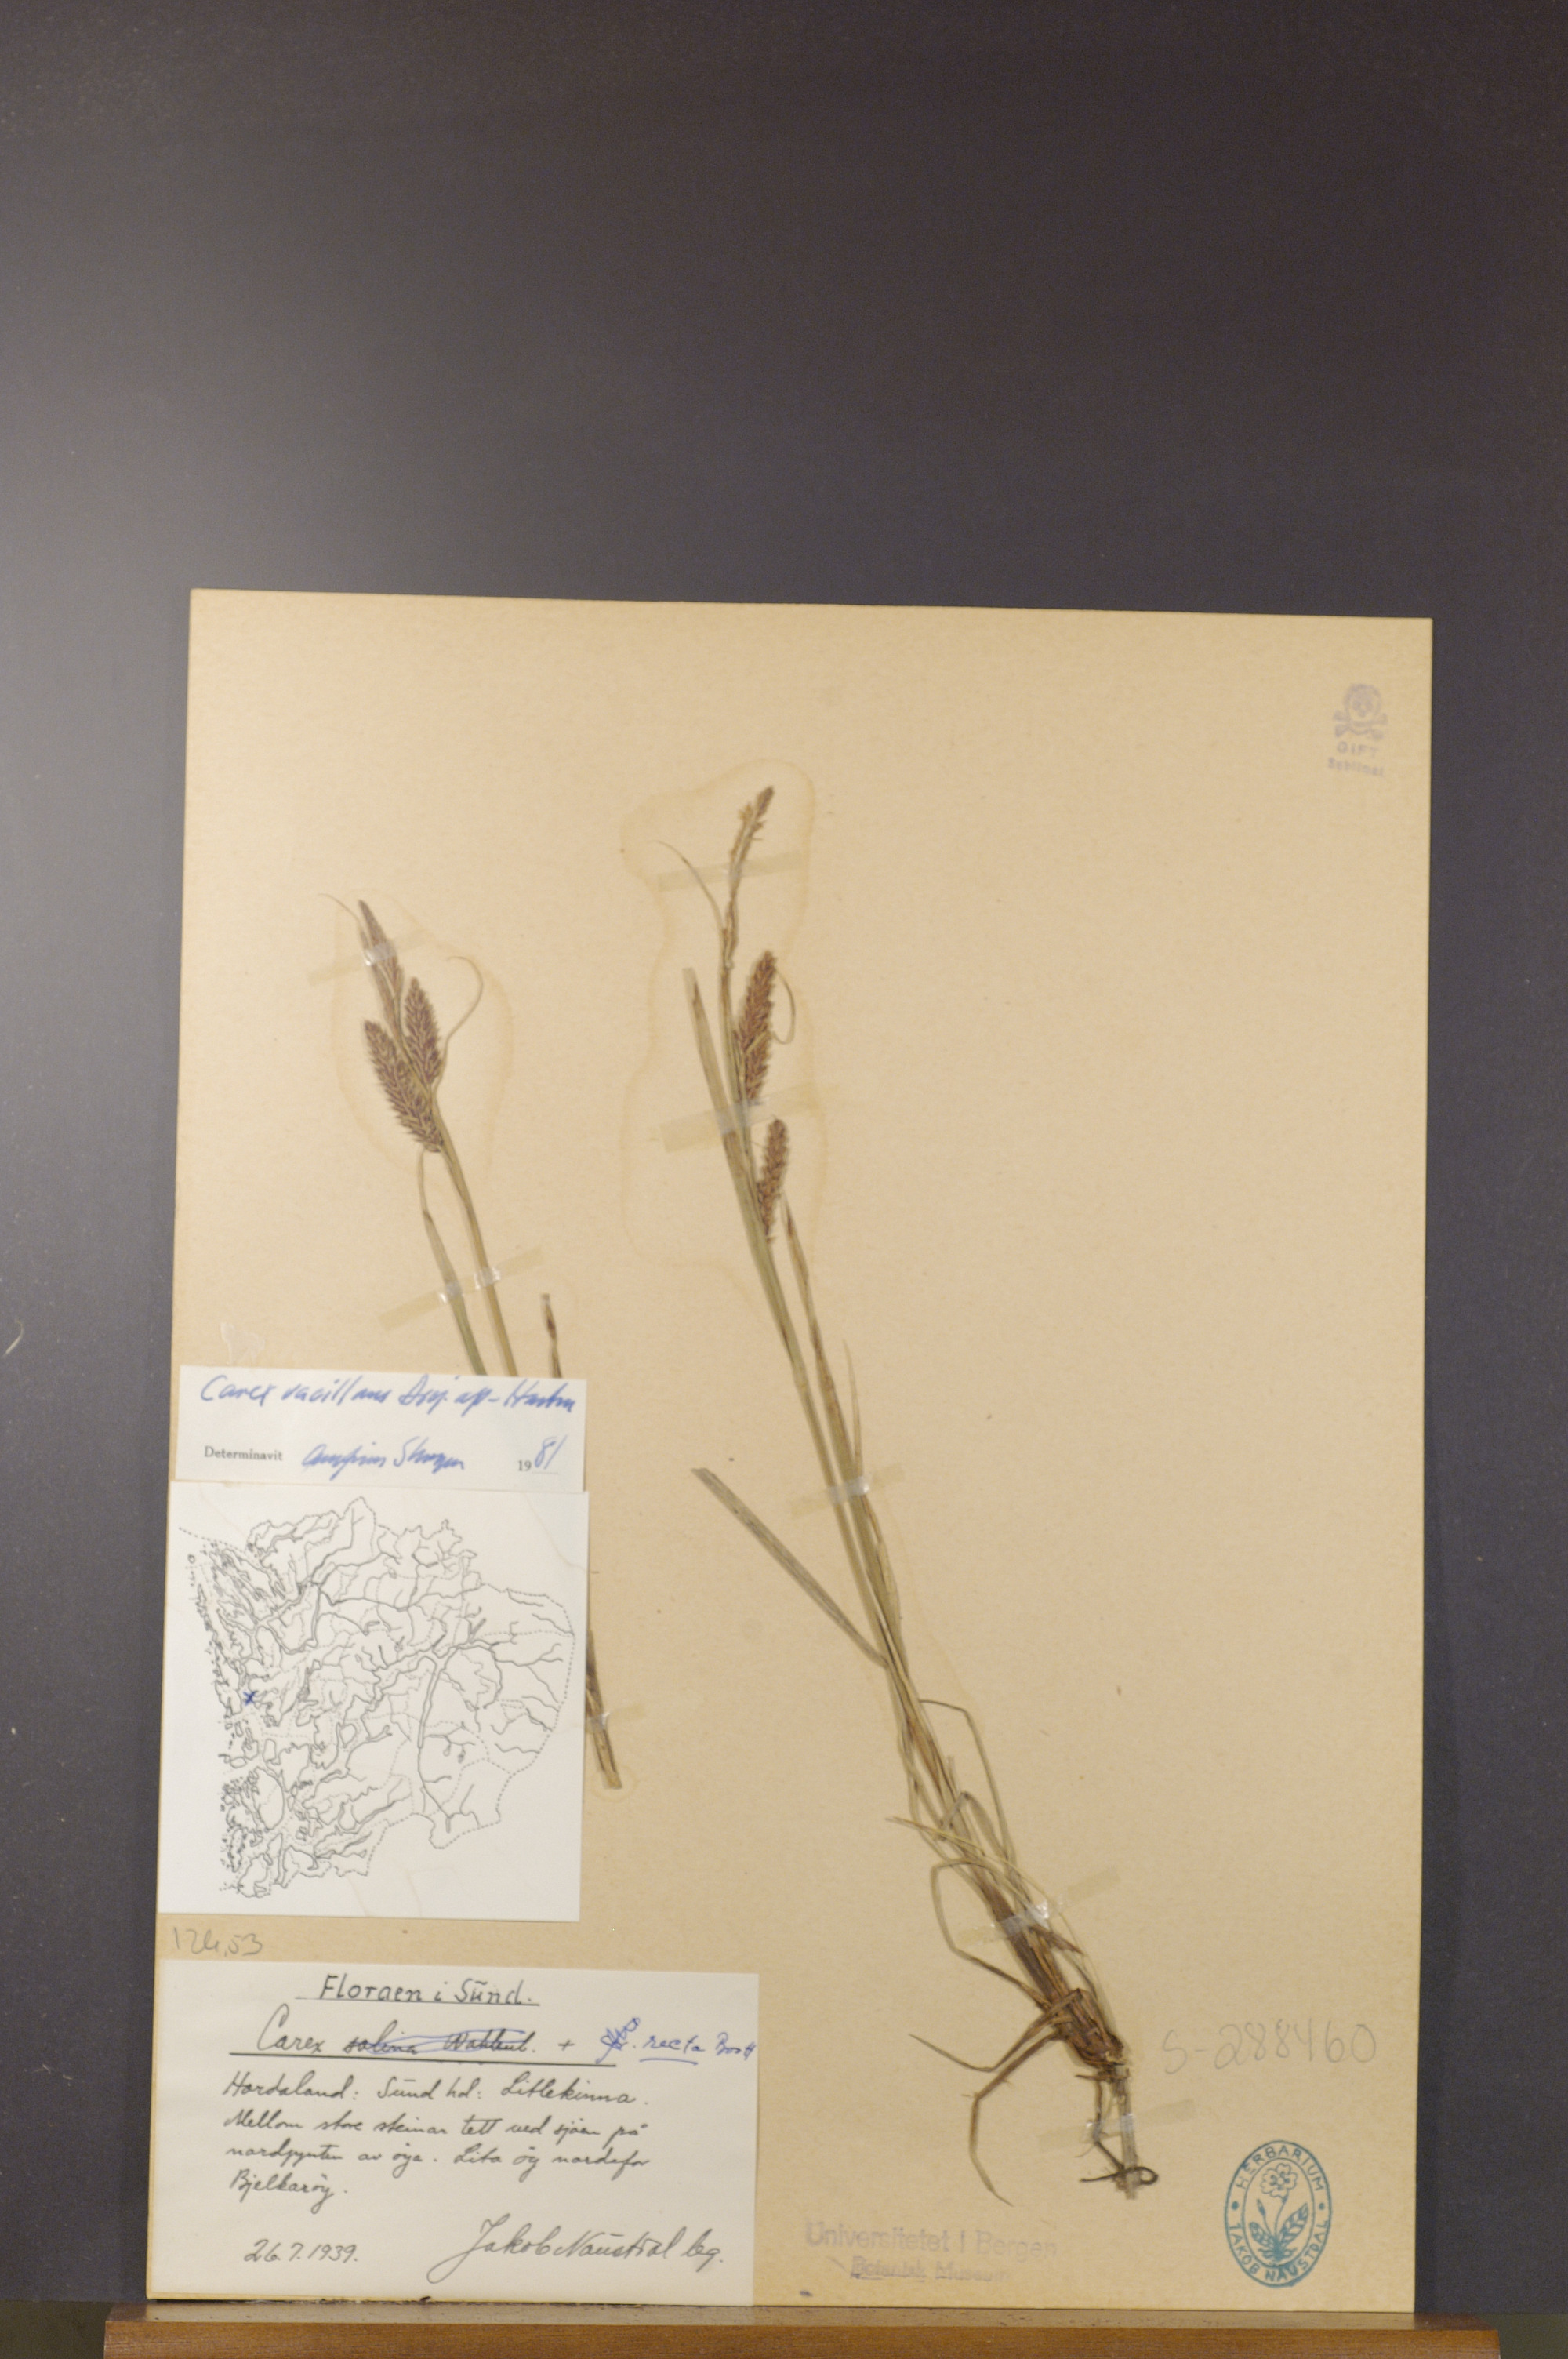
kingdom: Plantae
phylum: Tracheophyta
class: Liliopsida
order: Poales
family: Cyperaceae
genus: Carex
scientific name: Carex vacillans
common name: Sedge
